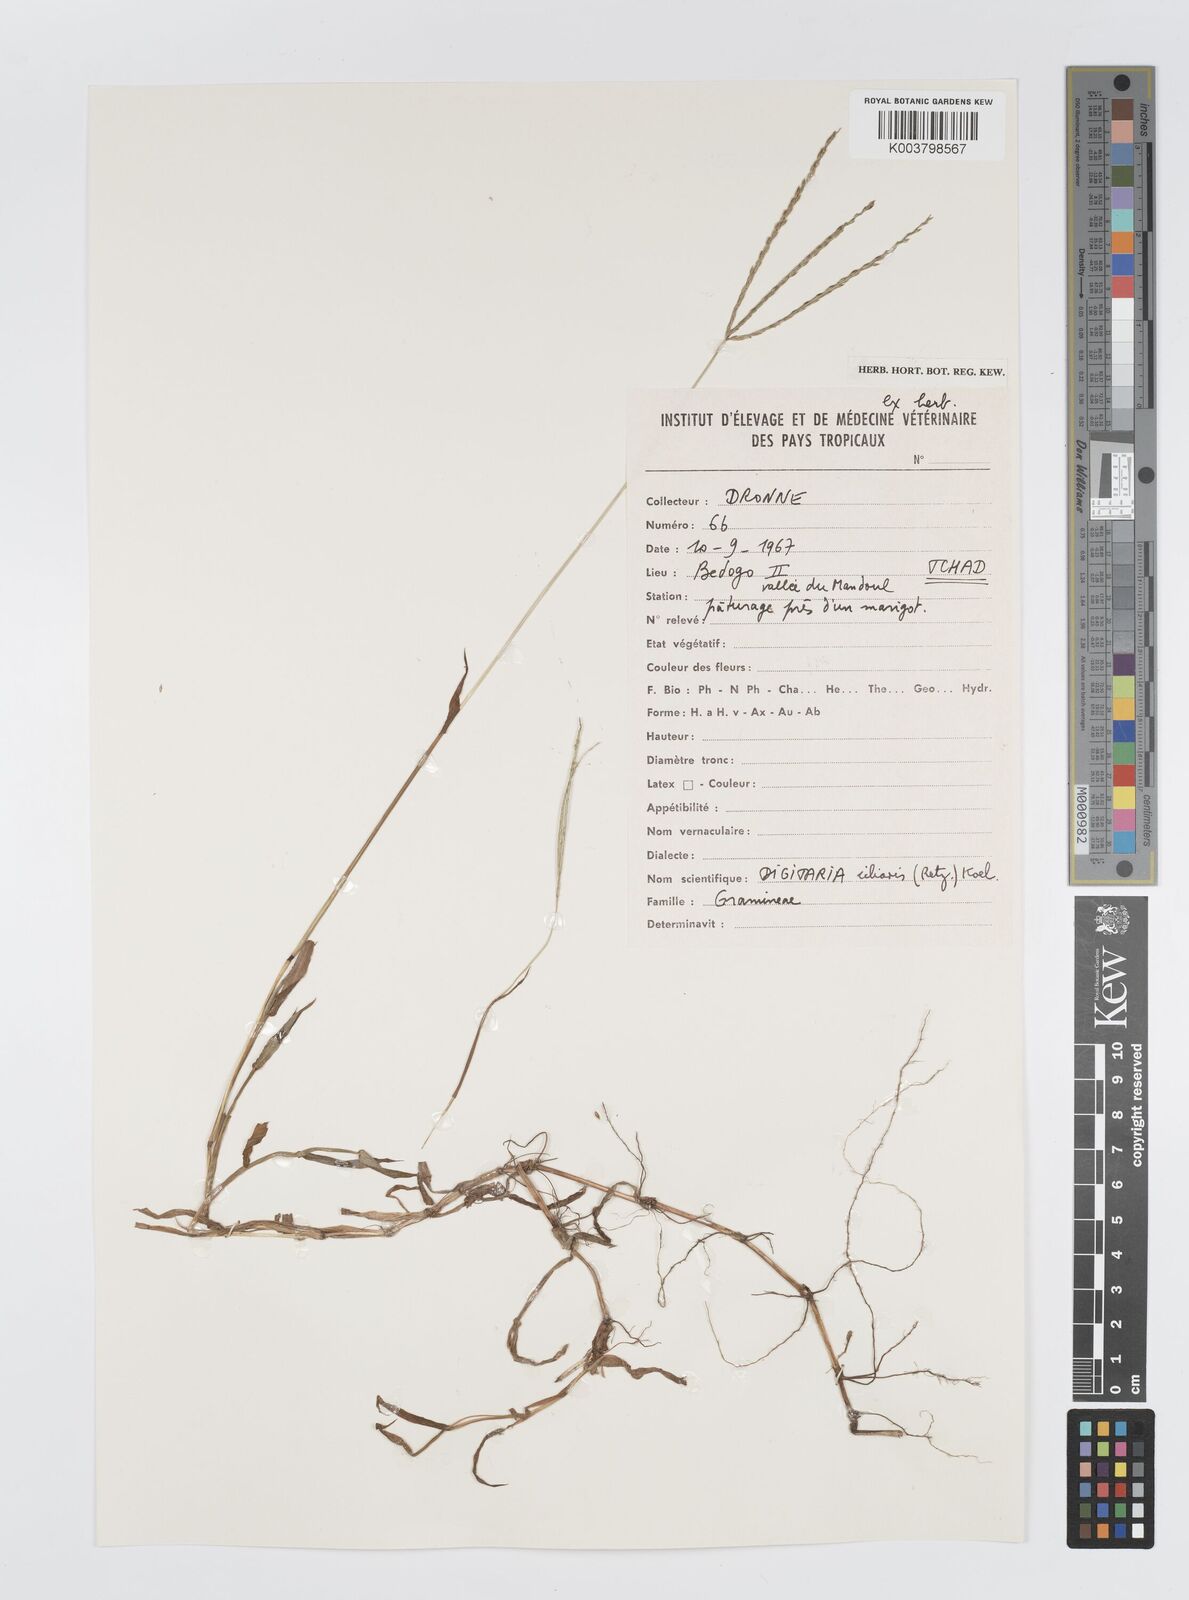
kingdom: Plantae
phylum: Tracheophyta
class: Liliopsida
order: Poales
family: Poaceae
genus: Digitaria
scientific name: Digitaria nuda
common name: Naked crabgrass
